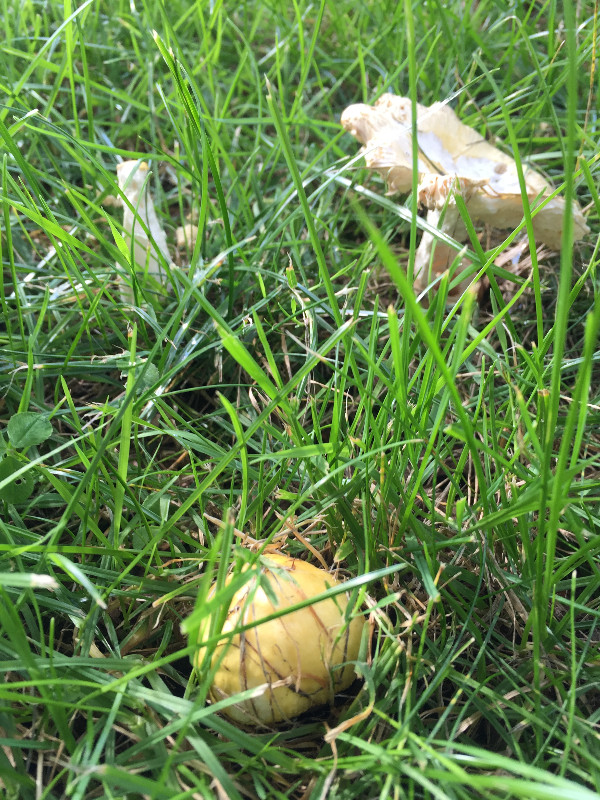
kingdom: Fungi
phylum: Basidiomycota
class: Agaricomycetes
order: Russulales
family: Russulaceae
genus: Russula
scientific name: Russula solaris
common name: sol-skørhat
